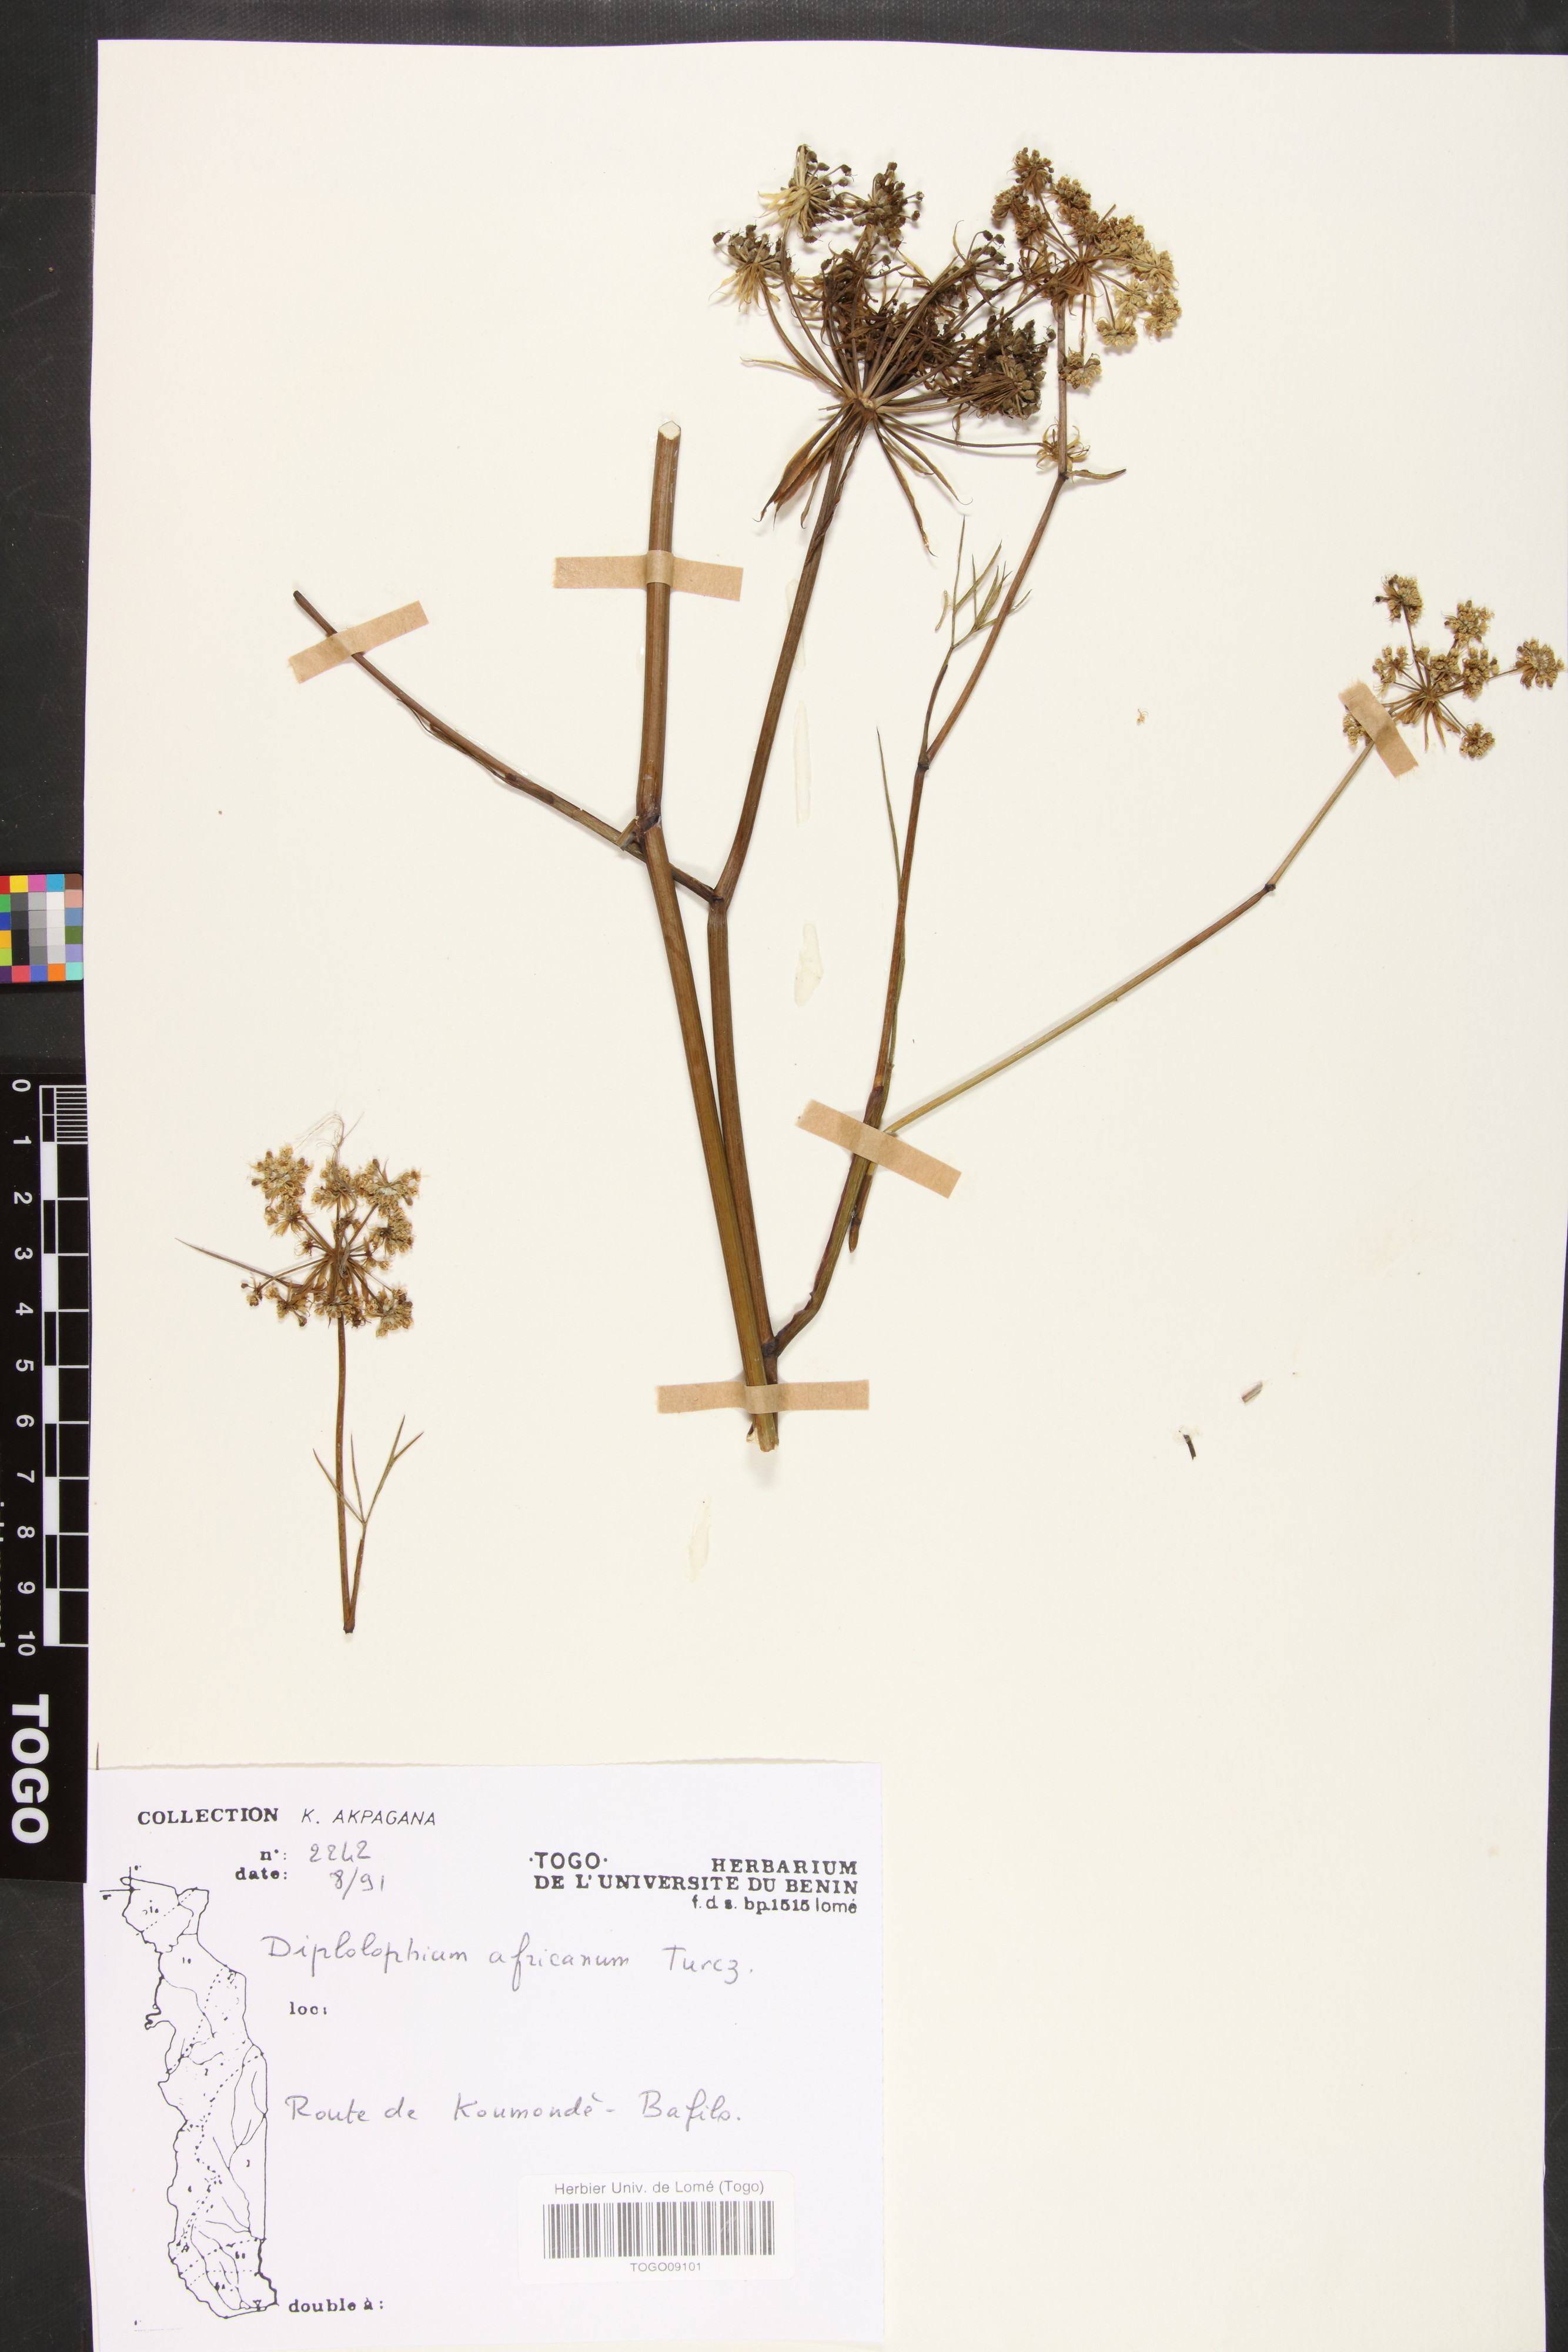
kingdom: Plantae
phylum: Tracheophyta
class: Magnoliopsida
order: Apiales
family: Apiaceae
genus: Diplolophium
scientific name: Diplolophium africanum
